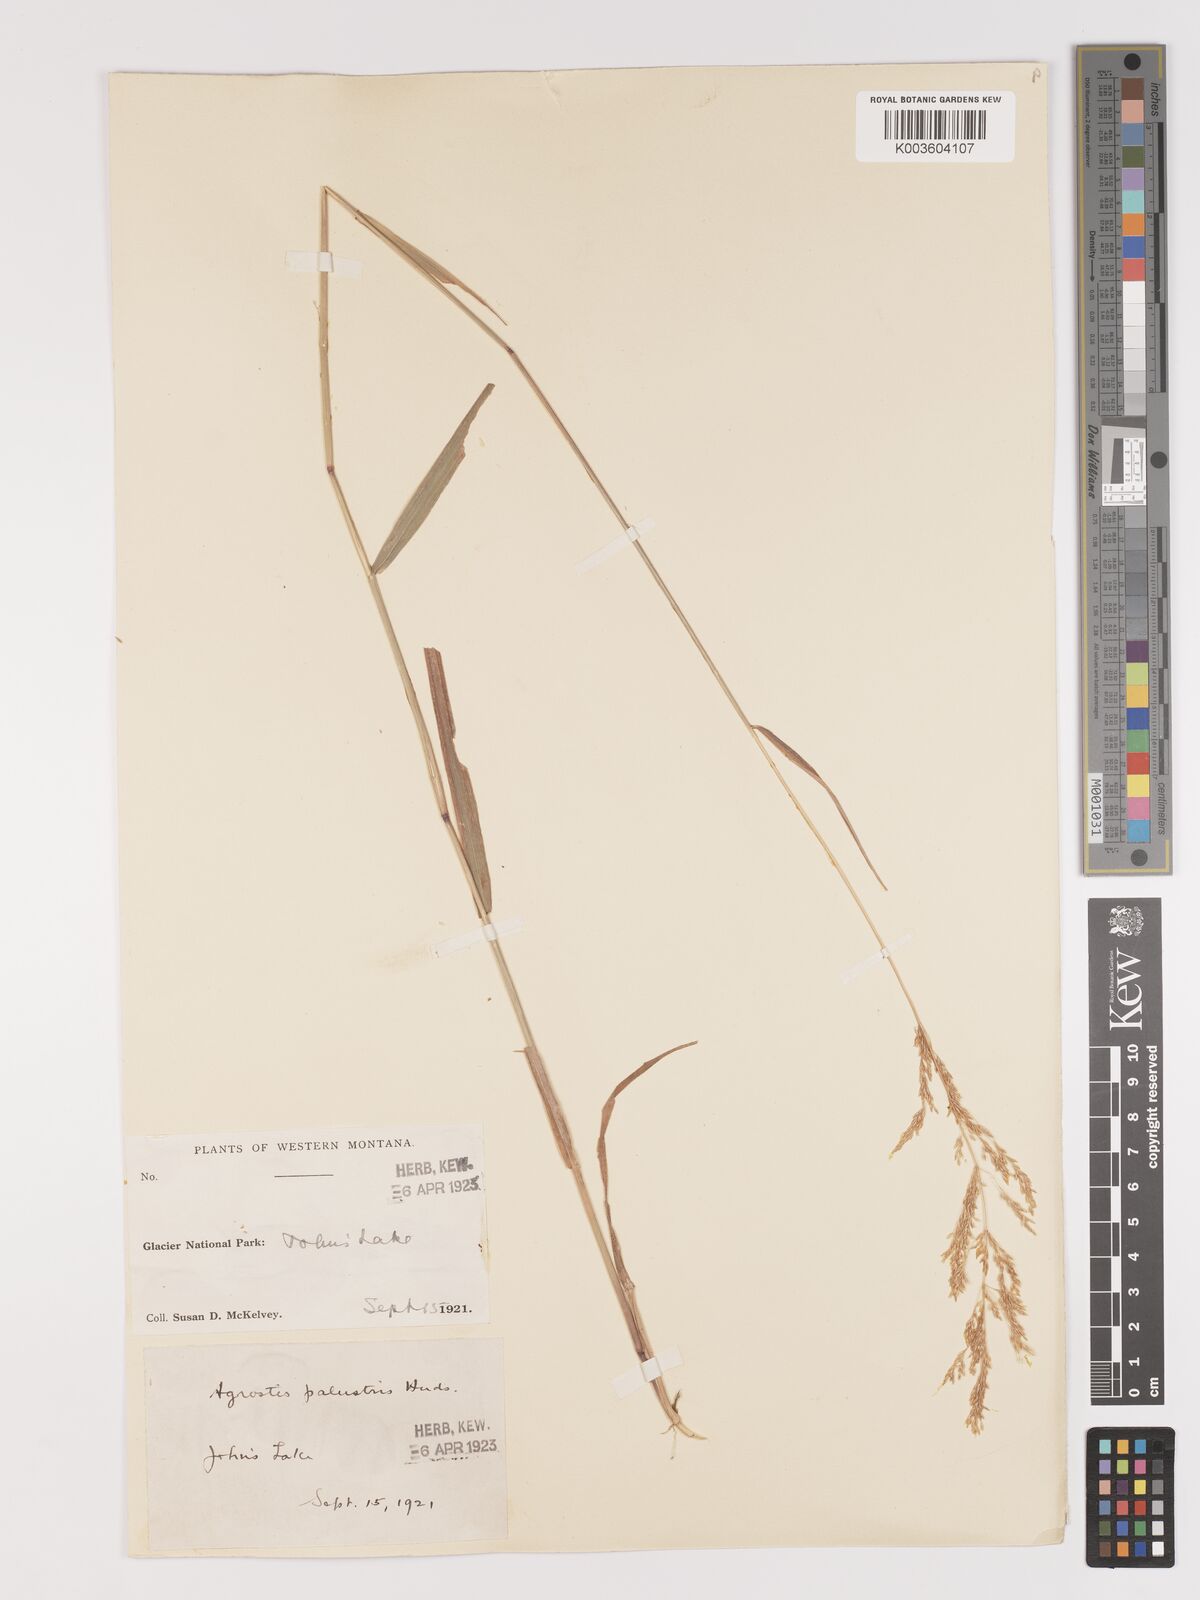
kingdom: Plantae
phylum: Tracheophyta
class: Liliopsida
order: Poales
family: Poaceae
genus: Agrostis
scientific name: Agrostis gigantea
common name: Black bent
